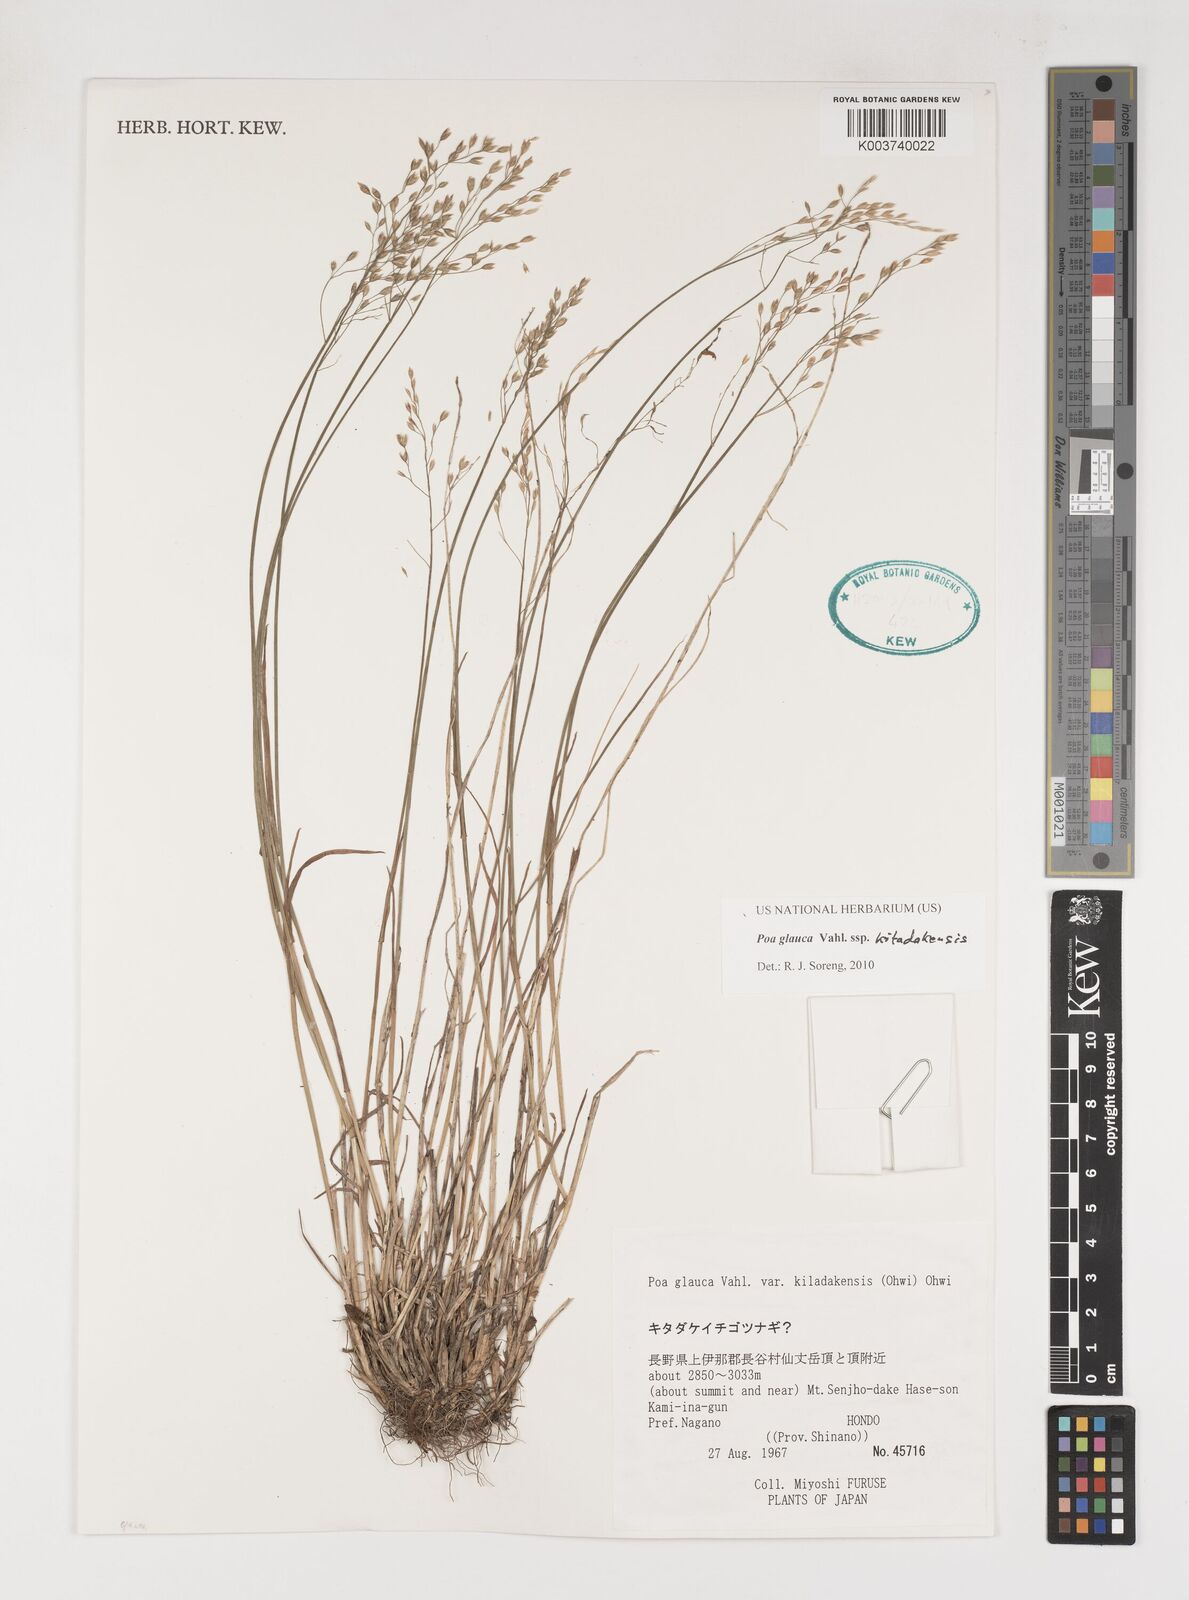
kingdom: Plantae
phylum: Tracheophyta
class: Liliopsida
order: Poales
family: Poaceae
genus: Poa
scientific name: Poa glauca
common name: Glaucous bluegrass
